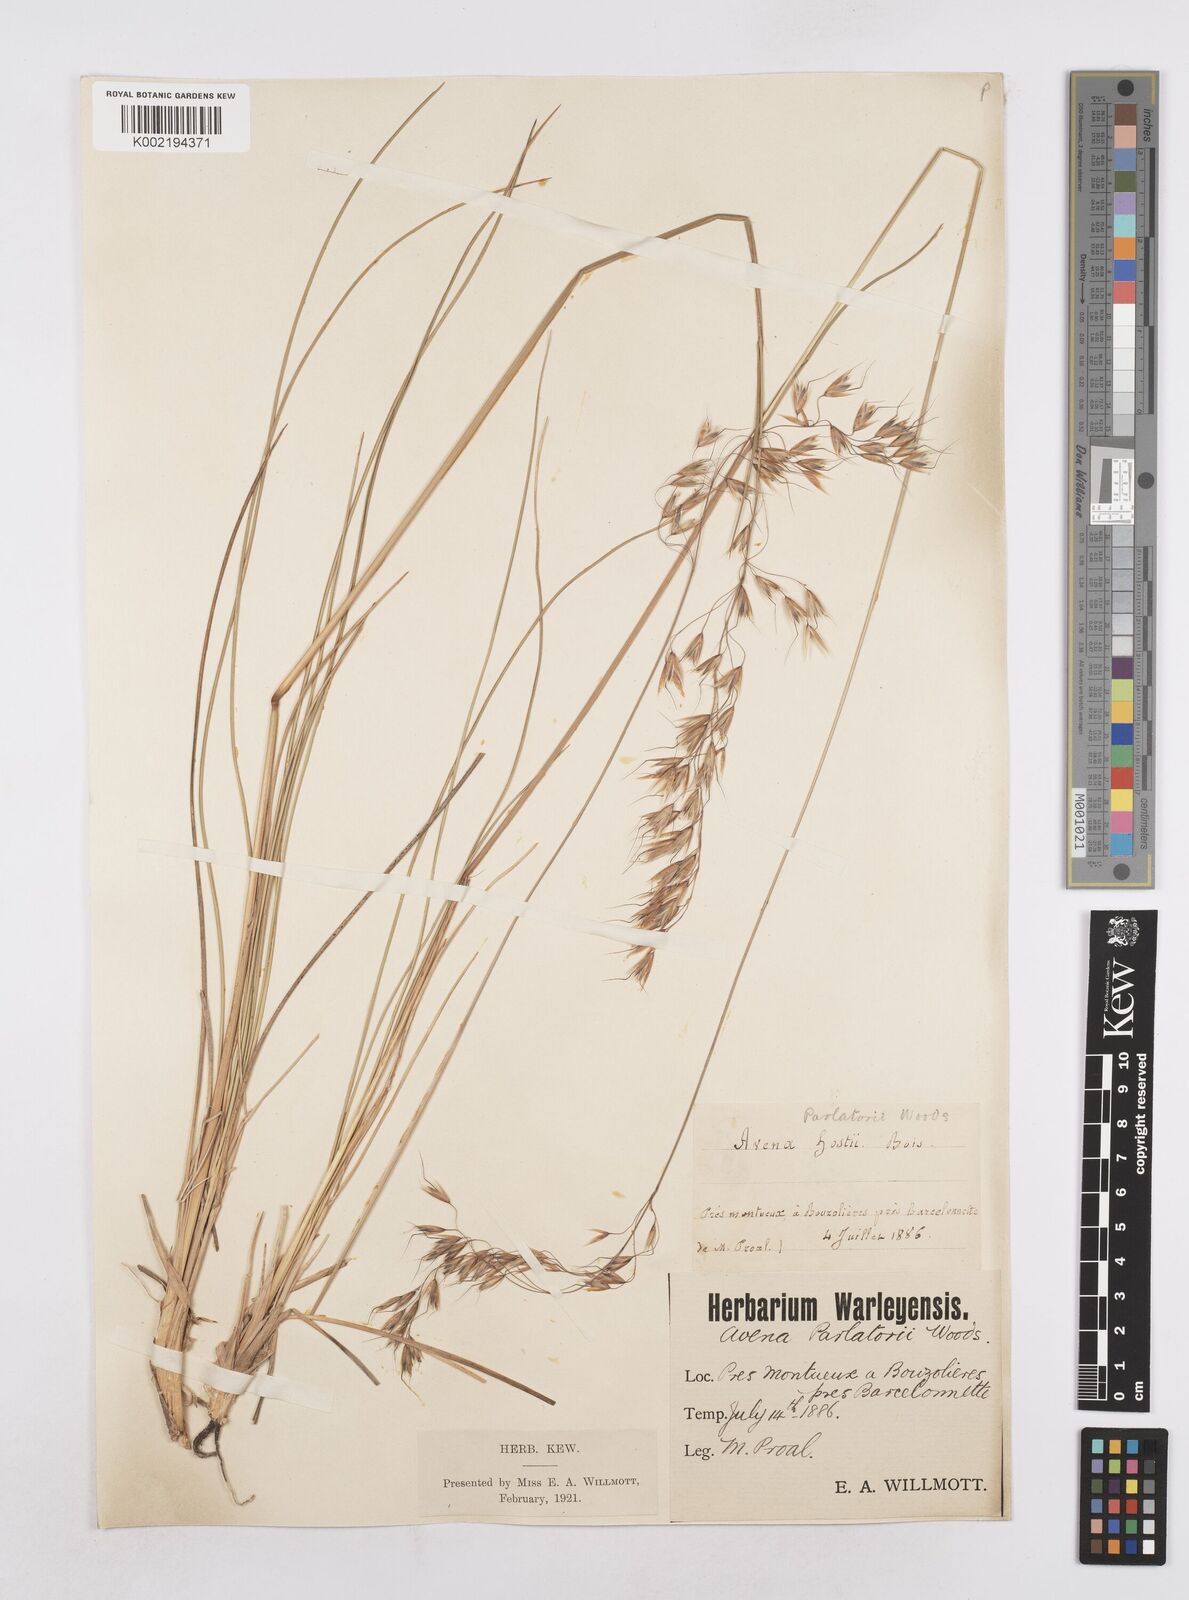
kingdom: Plantae
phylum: Tracheophyta
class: Liliopsida
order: Poales
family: Poaceae
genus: Helictotrichon
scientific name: Helictotrichon parlatorei
